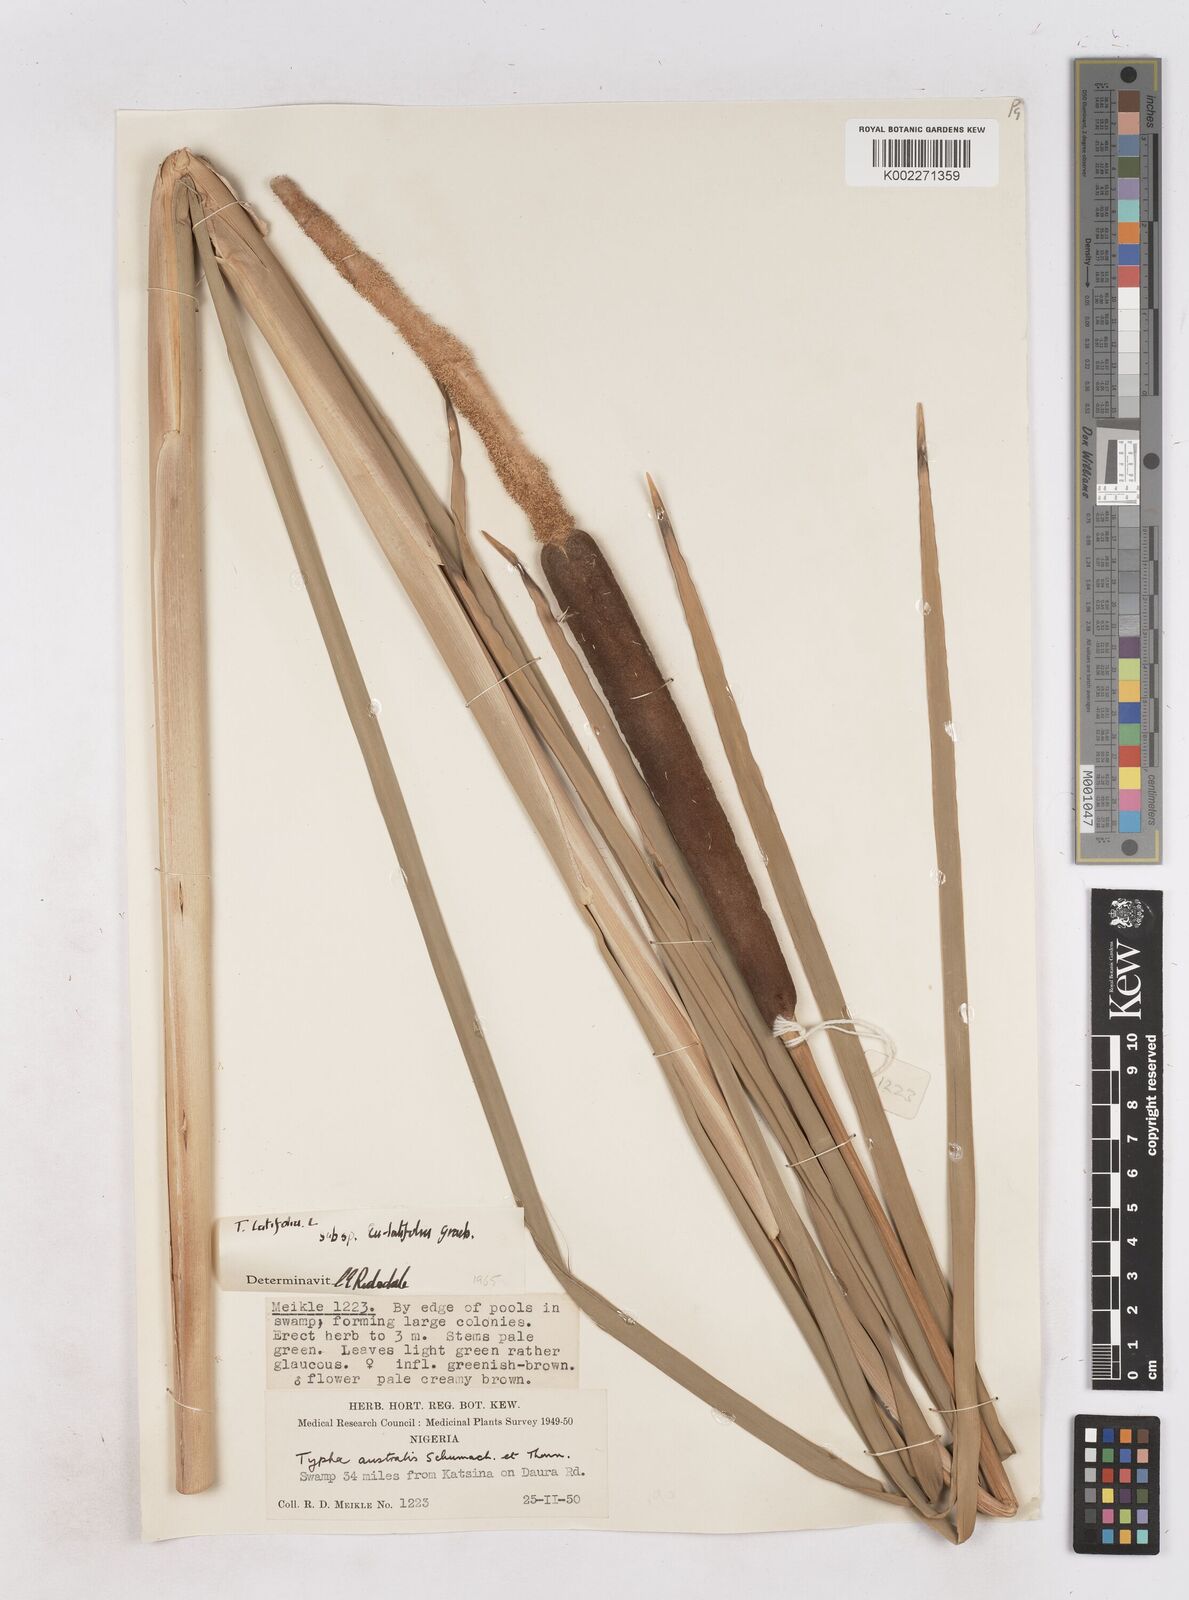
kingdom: Plantae
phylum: Tracheophyta
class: Liliopsida
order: Poales
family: Typhaceae
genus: Typha
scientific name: Typha latifolia
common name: Broadleaf cattail
